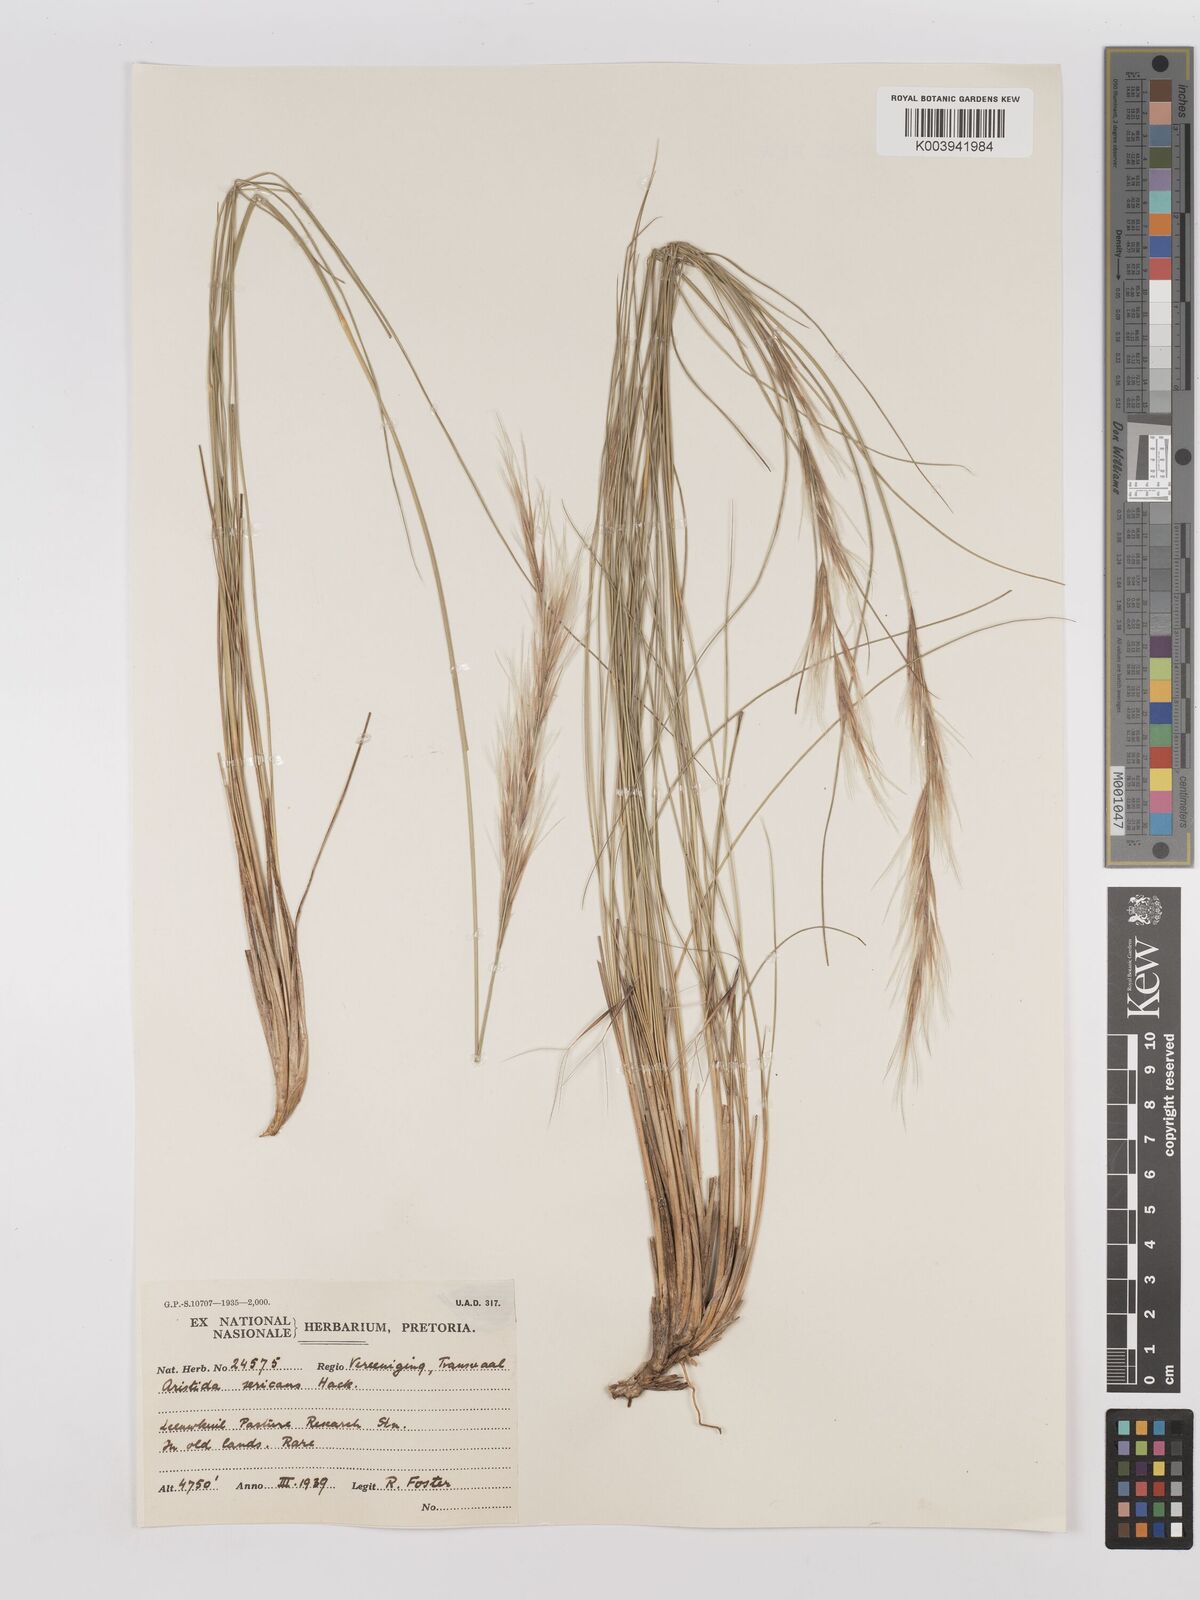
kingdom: Plantae
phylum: Tracheophyta
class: Liliopsida
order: Poales
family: Poaceae
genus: Stipagrostis
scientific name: Stipagrostis zeyheri
